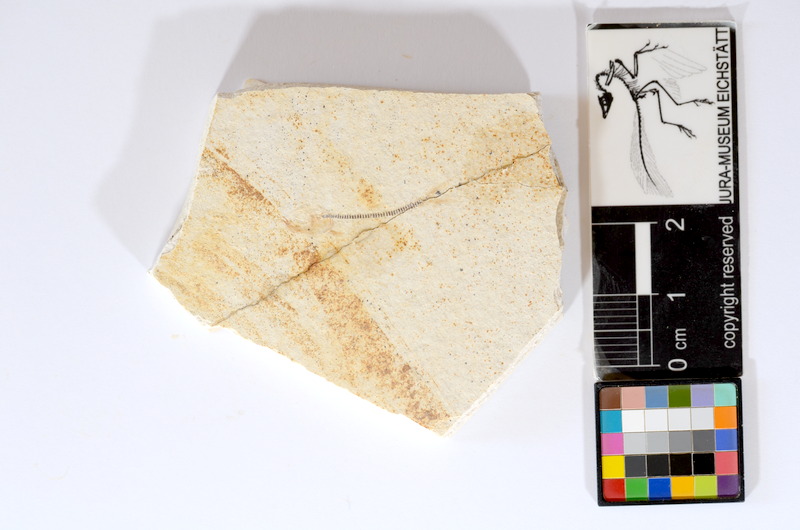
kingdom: Animalia
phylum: Chordata
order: Salmoniformes
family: Orthogonikleithridae
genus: Orthogonikleithrus
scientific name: Orthogonikleithrus hoelli
